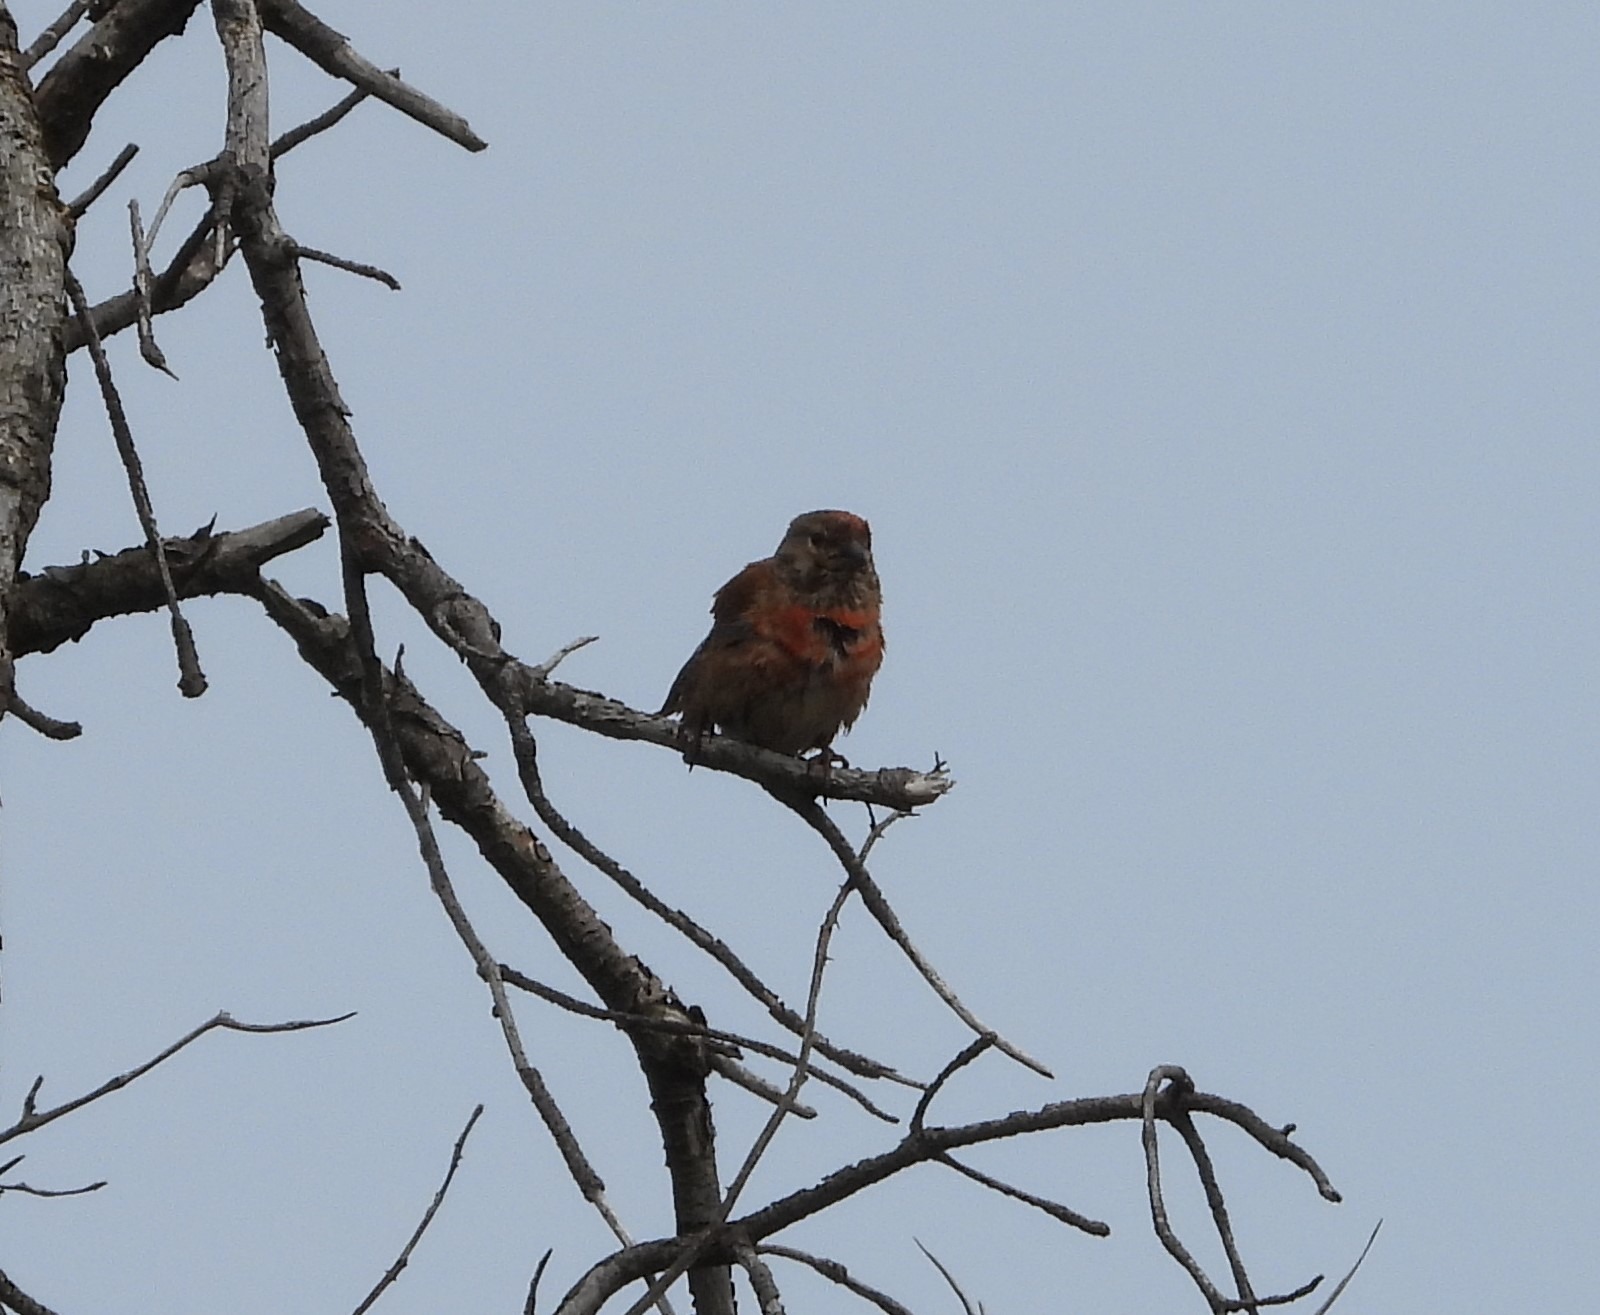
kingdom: Animalia
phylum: Chordata
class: Aves
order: Passeriformes
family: Fringillidae
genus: Linaria
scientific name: Linaria cannabina
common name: Tornirisk
